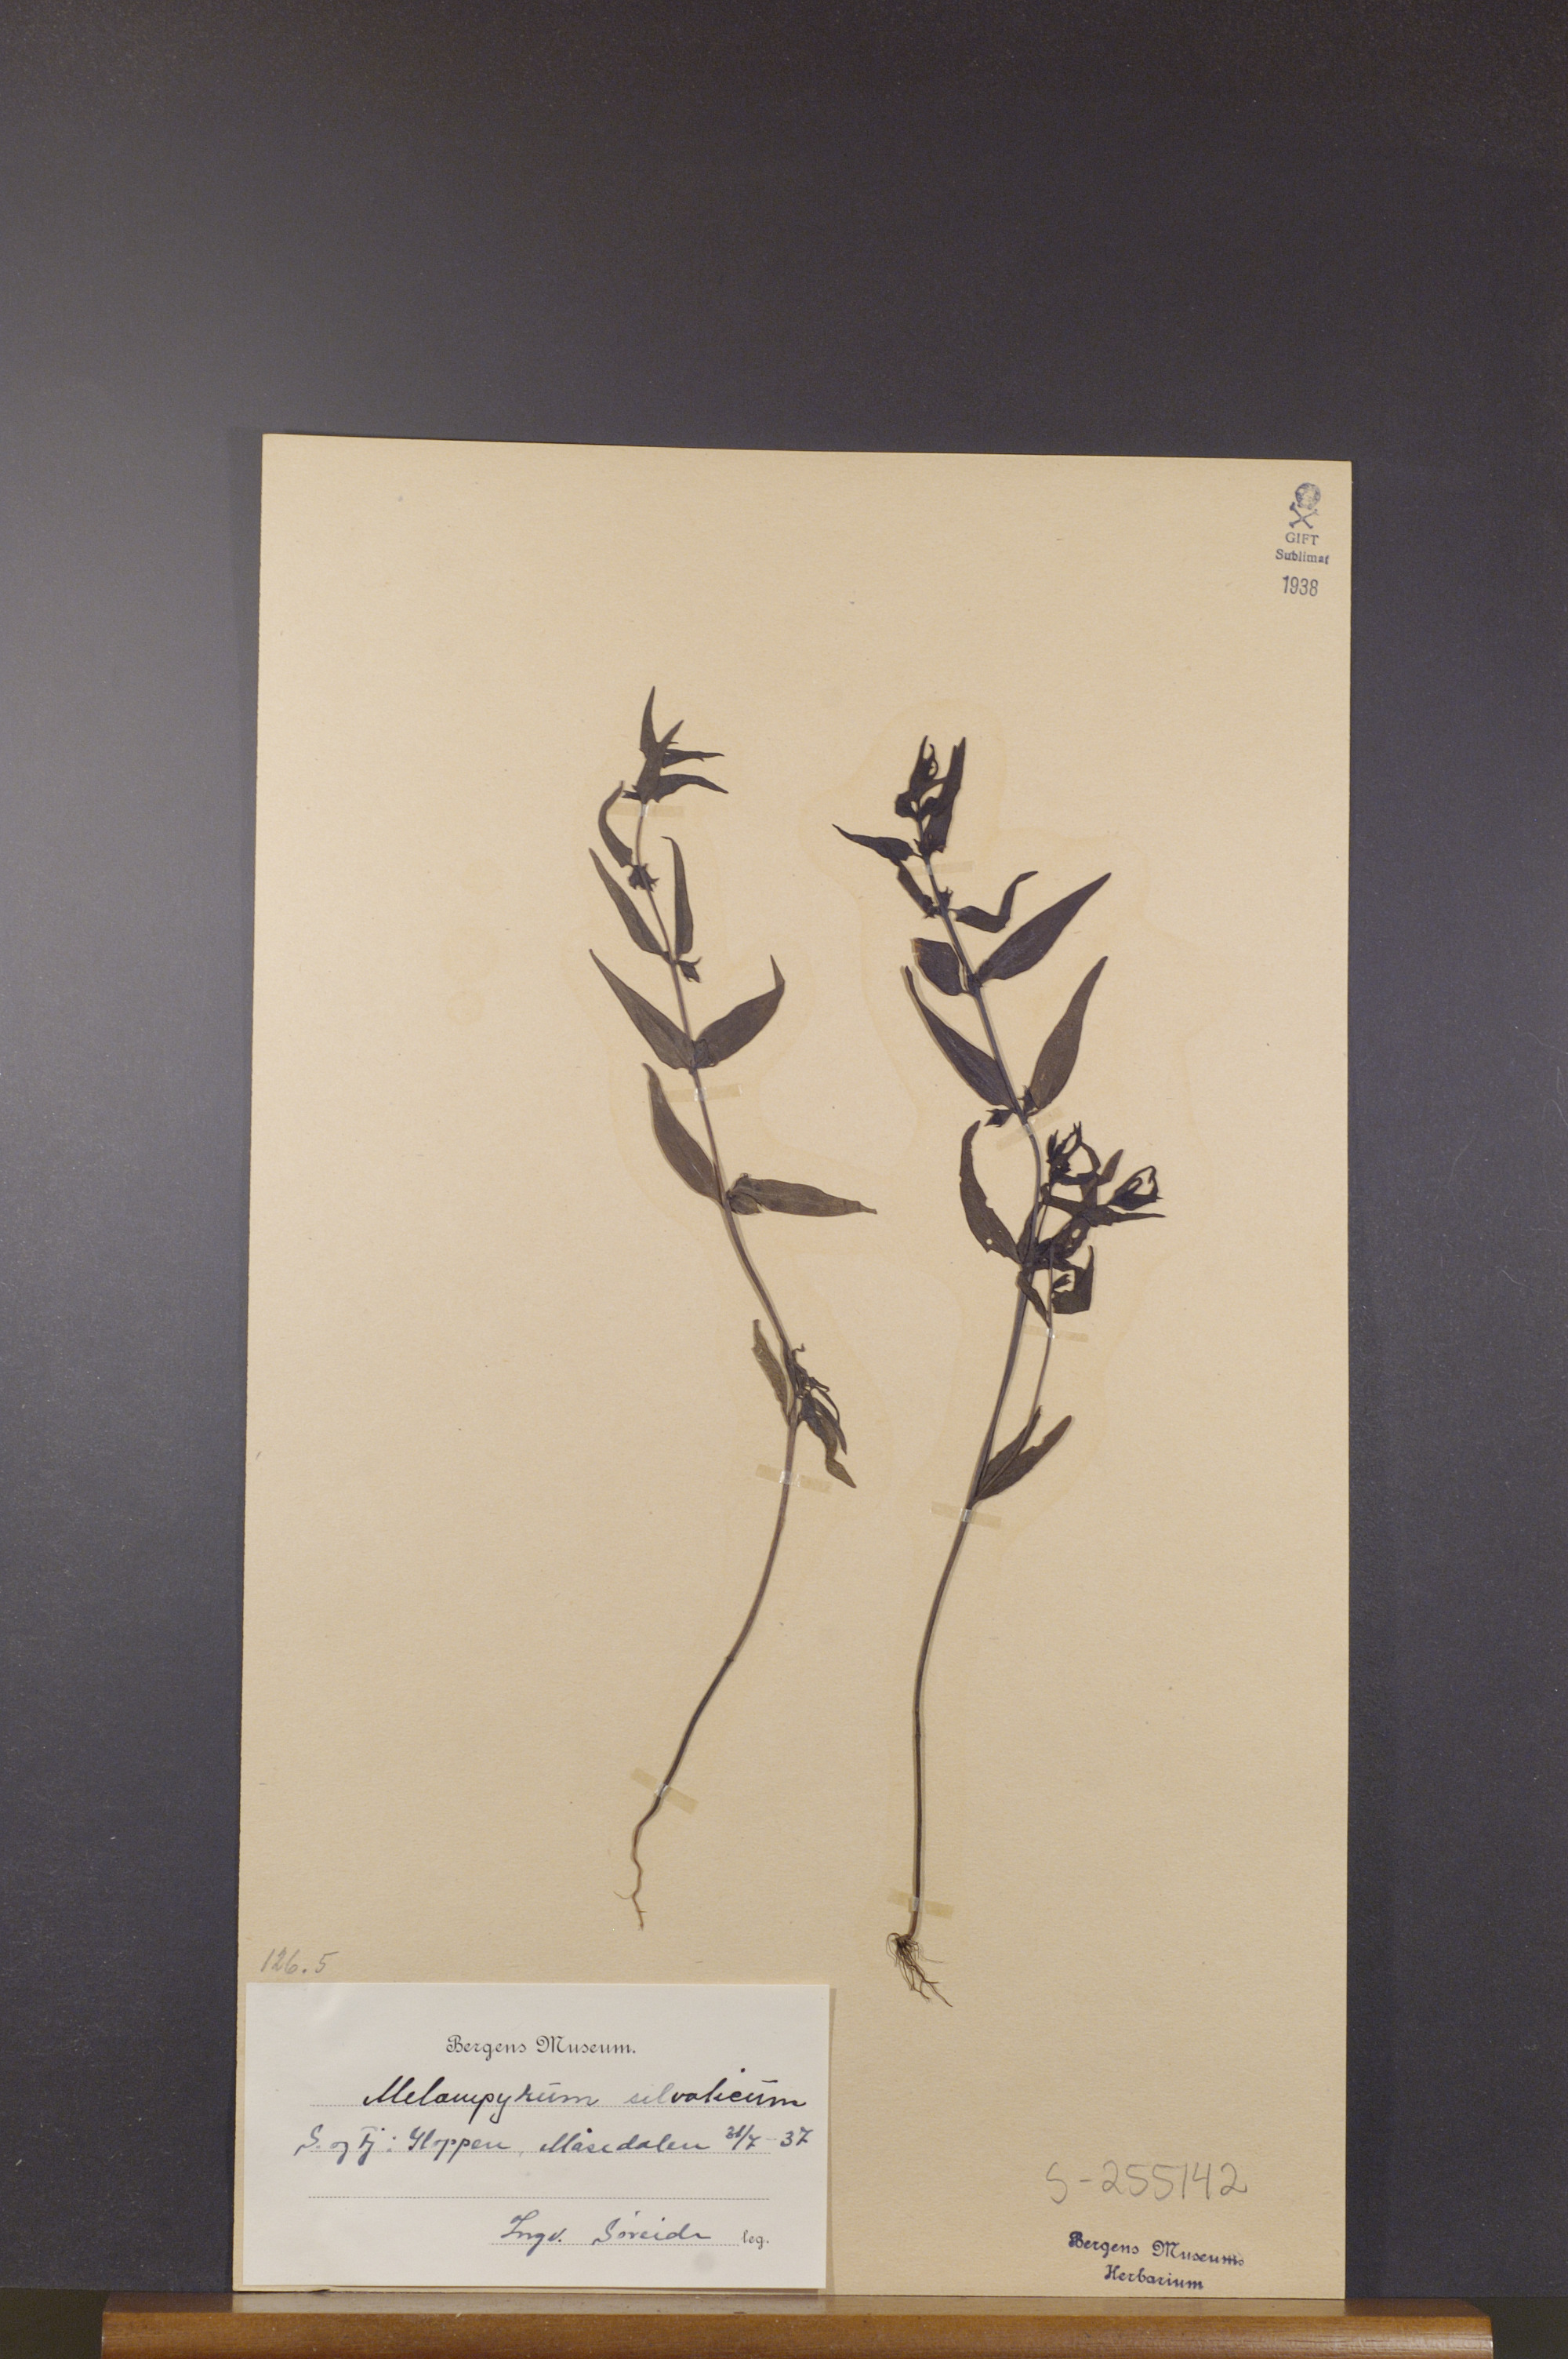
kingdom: Plantae
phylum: Tracheophyta
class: Magnoliopsida
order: Lamiales
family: Orobanchaceae
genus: Melampyrum
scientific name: Melampyrum sylvaticum
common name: Small cow-wheat
